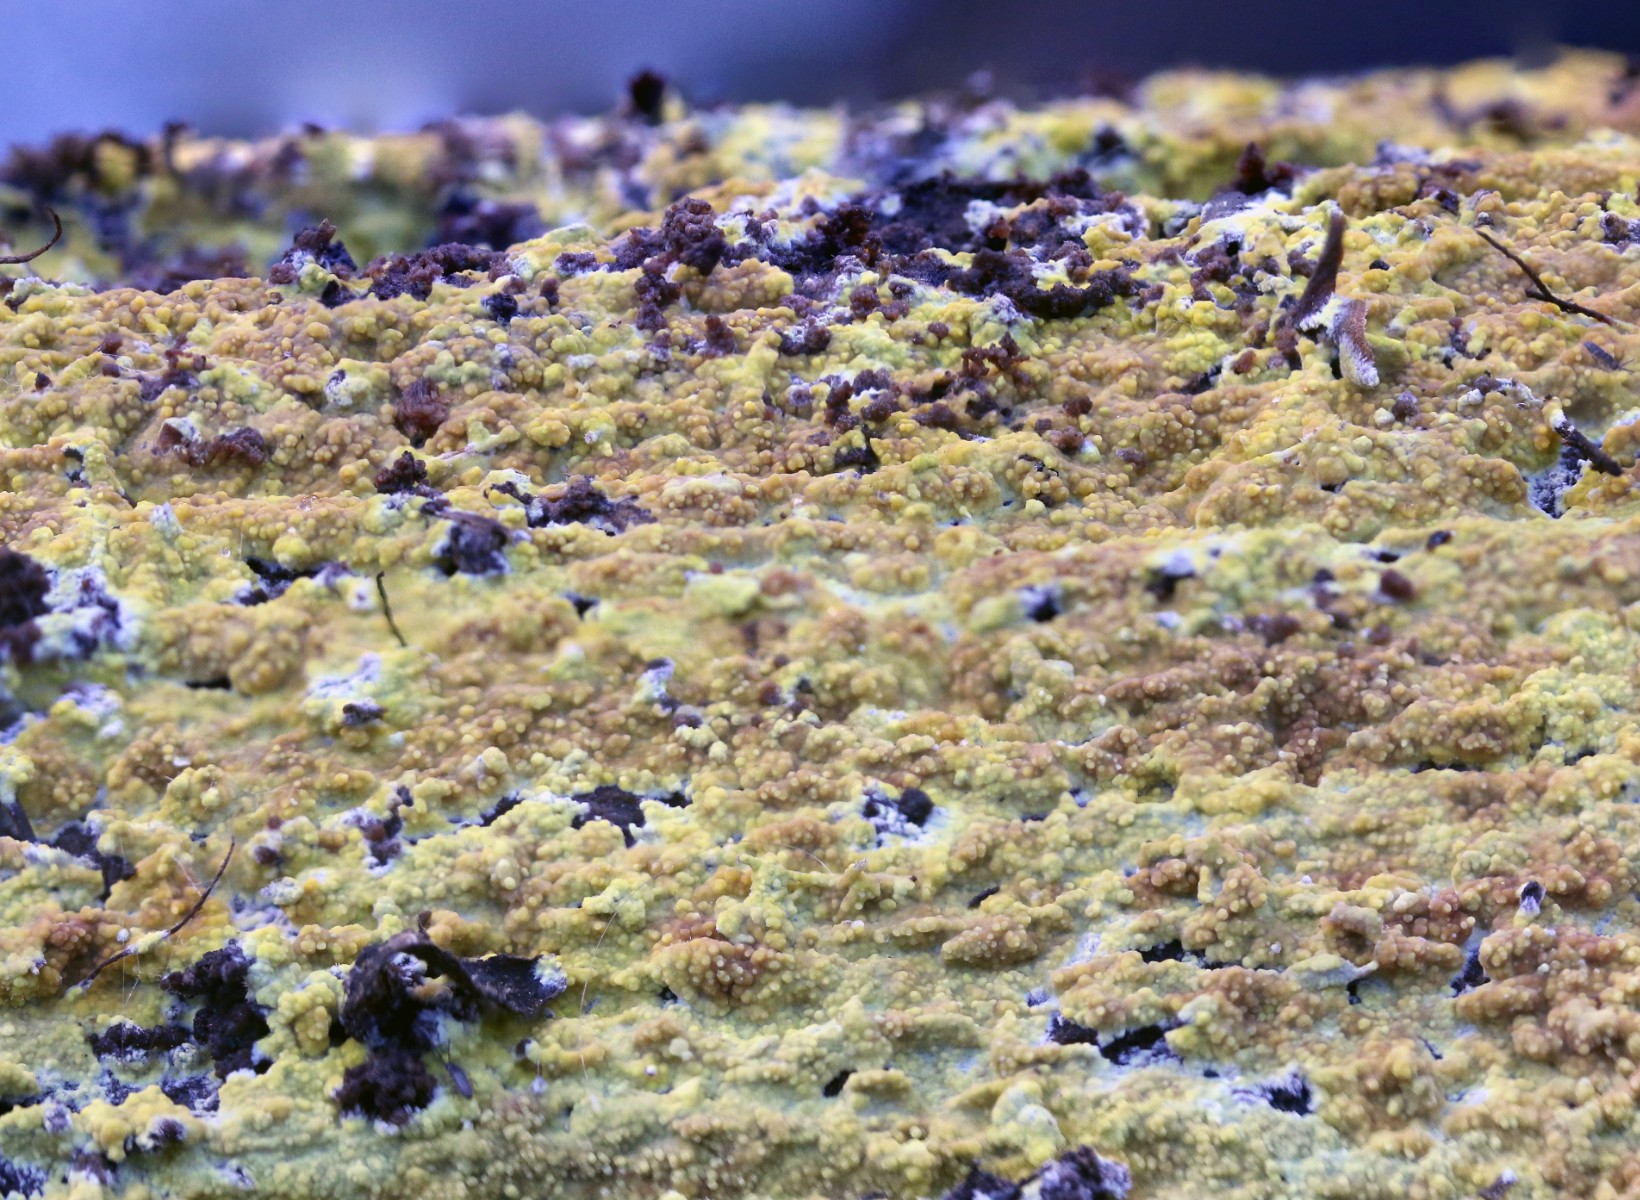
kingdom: Fungi
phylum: Basidiomycota
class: Agaricomycetes
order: Polyporales
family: Meruliaceae
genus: Phlebiodontia
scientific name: Phlebiodontia subochracea
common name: svovl-åresvamp
